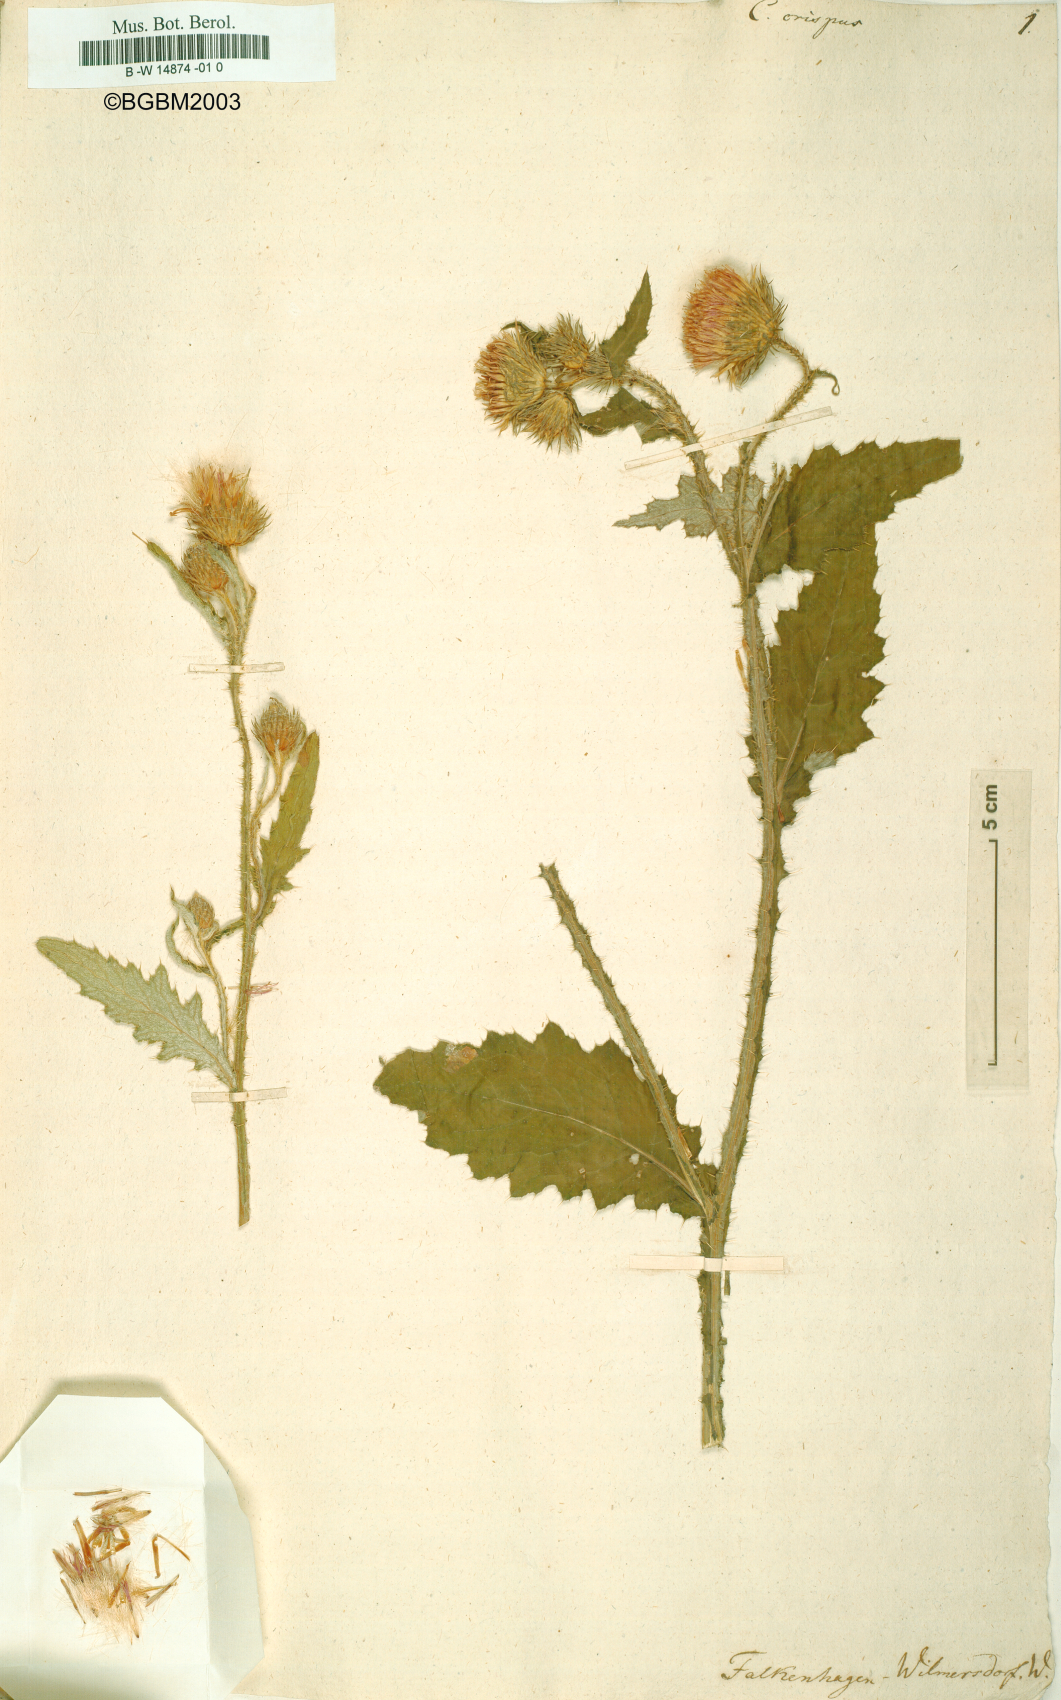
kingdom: Plantae
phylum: Tracheophyta
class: Magnoliopsida
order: Asterales
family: Asteraceae
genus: Carduus
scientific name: Carduus crispus
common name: Welted thistle
